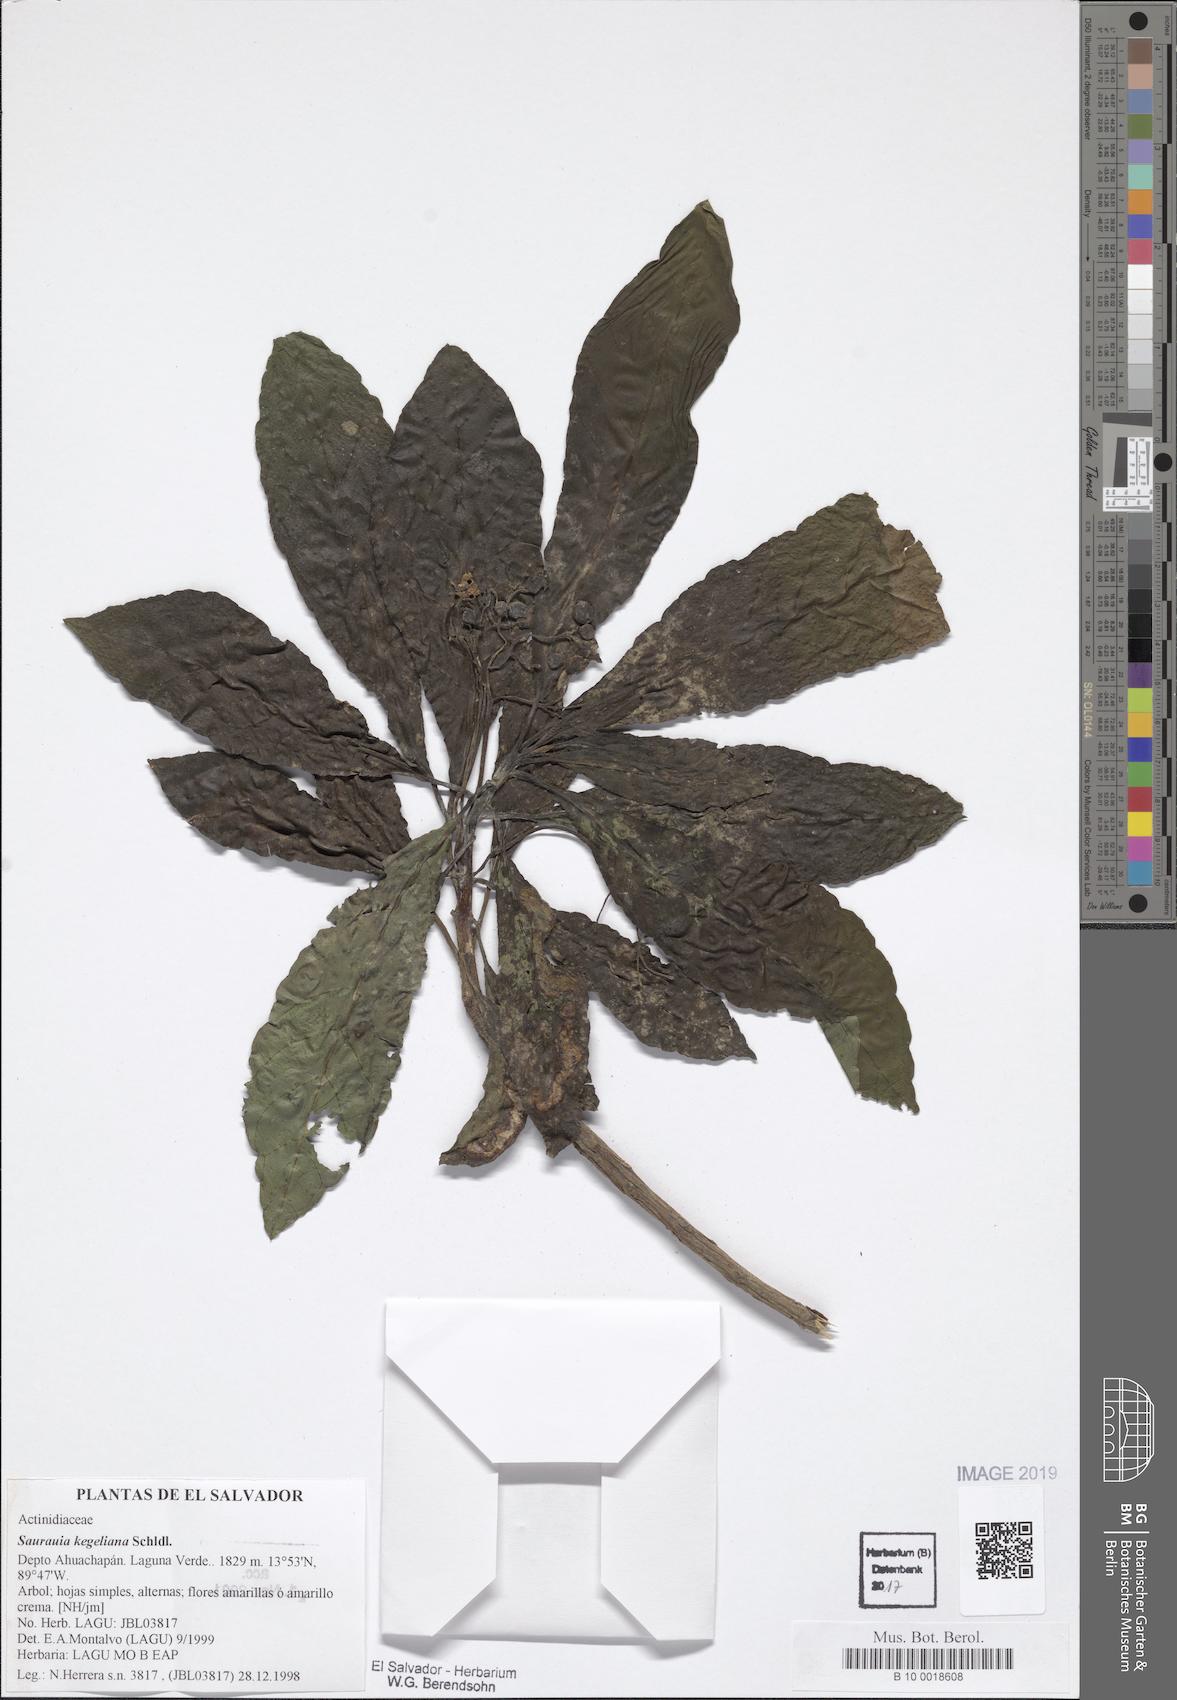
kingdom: Plantae
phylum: Tracheophyta
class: Magnoliopsida
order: Ericales
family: Actinidiaceae
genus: Saurauia
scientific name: Saurauia kegeliana
